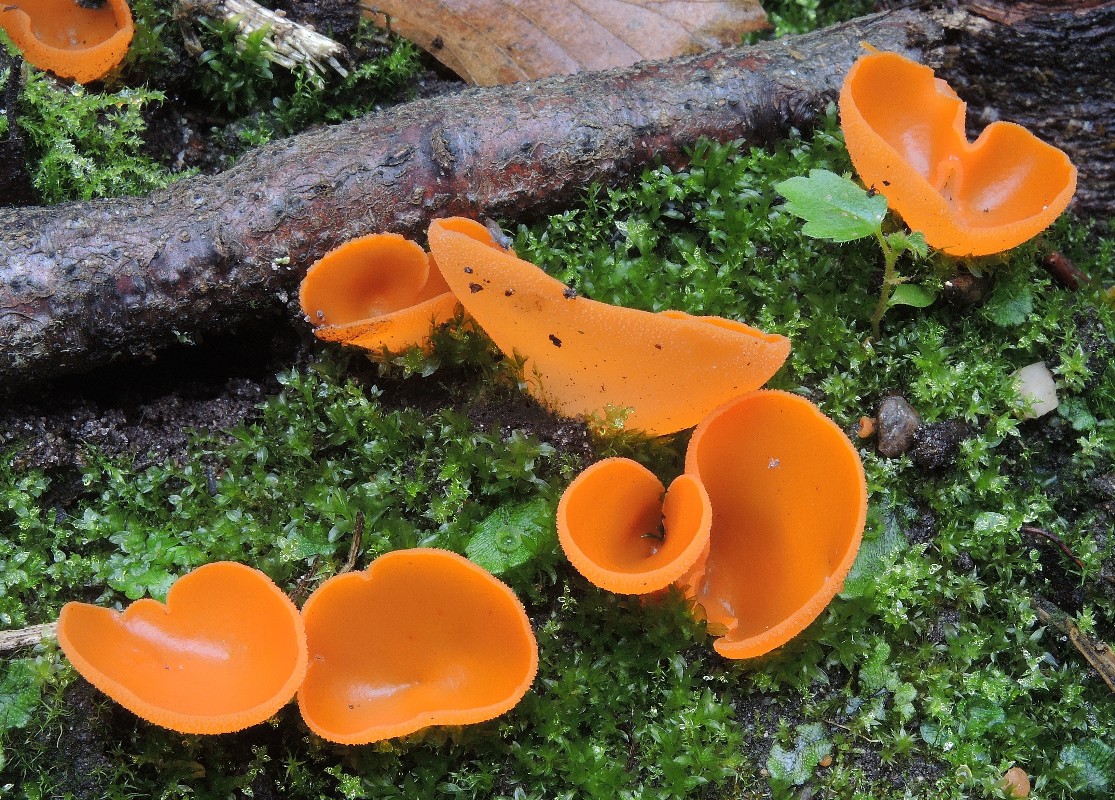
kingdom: Fungi
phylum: Ascomycota
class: Pezizomycetes
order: Pezizales
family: Pyronemataceae
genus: Aleuria
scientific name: Aleuria aurantia
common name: almindelig orangebæger
